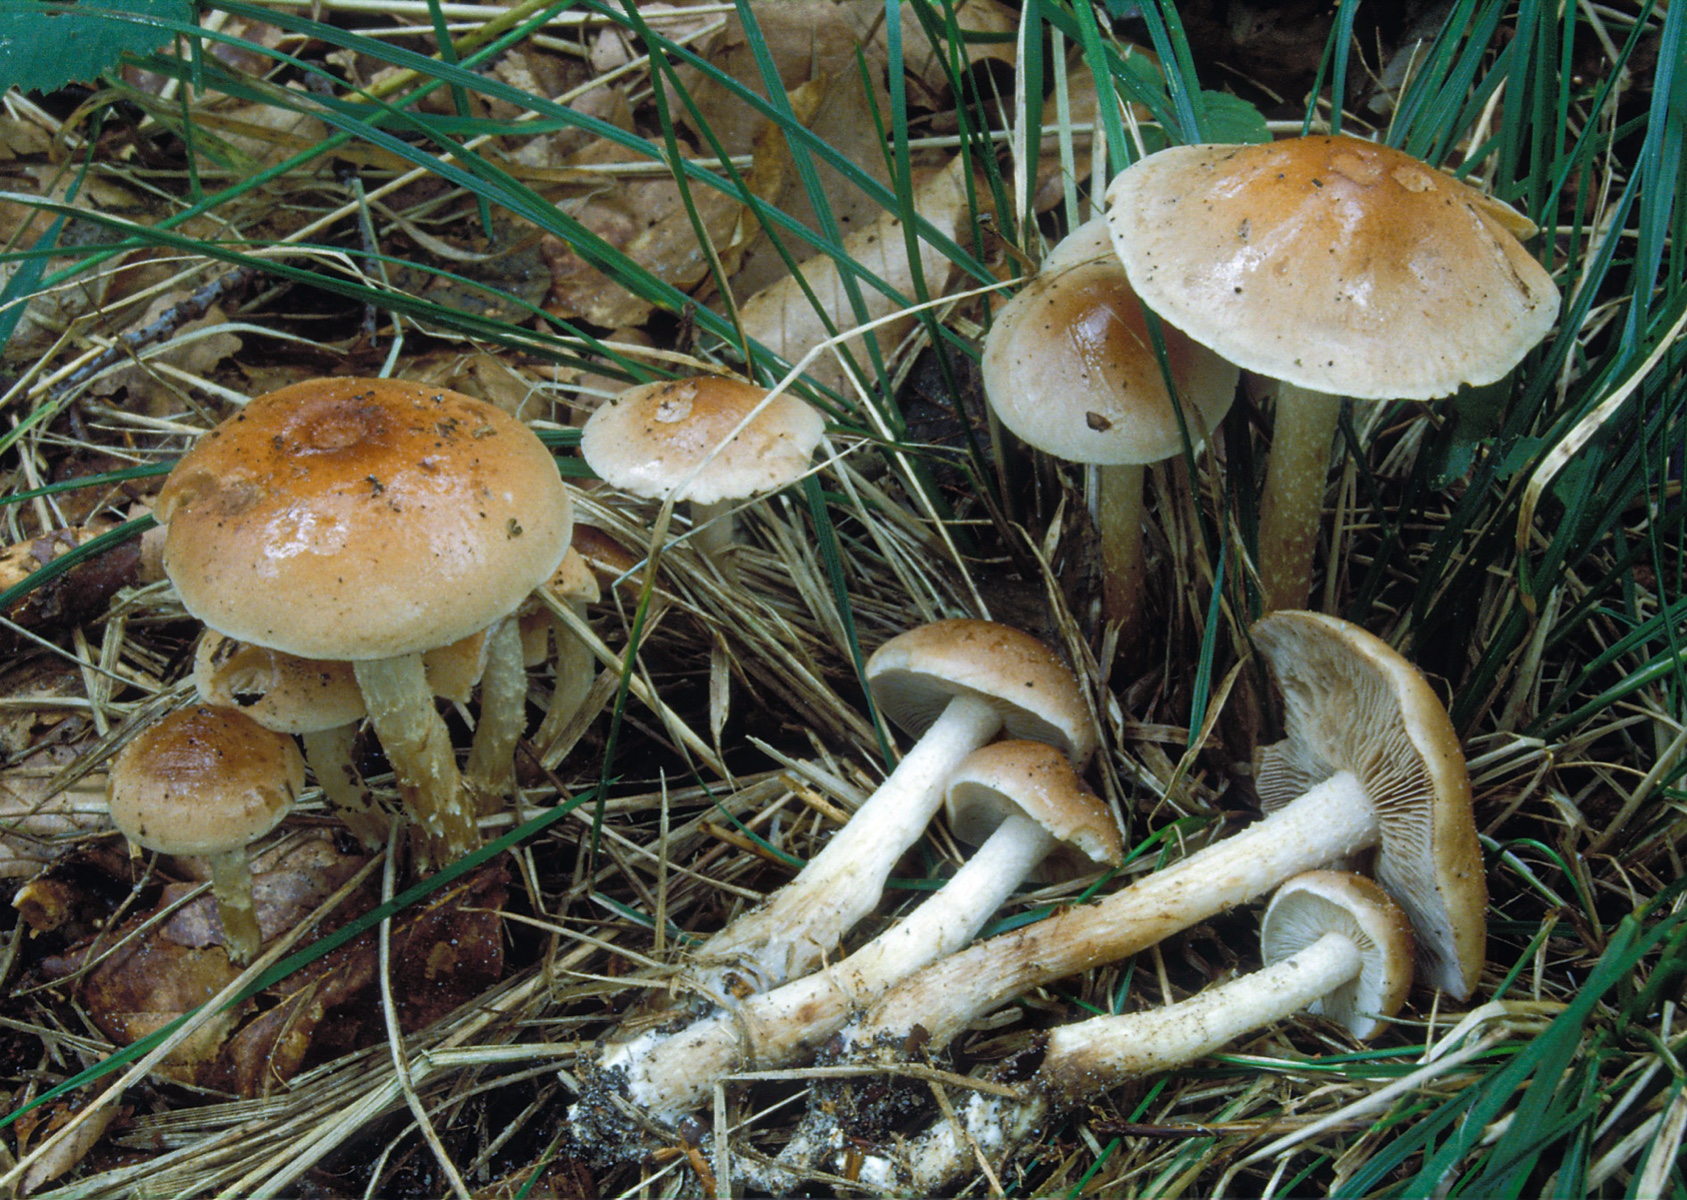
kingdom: Fungi
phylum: Basidiomycota
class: Agaricomycetes
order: Agaricales
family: Hymenogastraceae
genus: Hebeloma
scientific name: Hebeloma birrus
